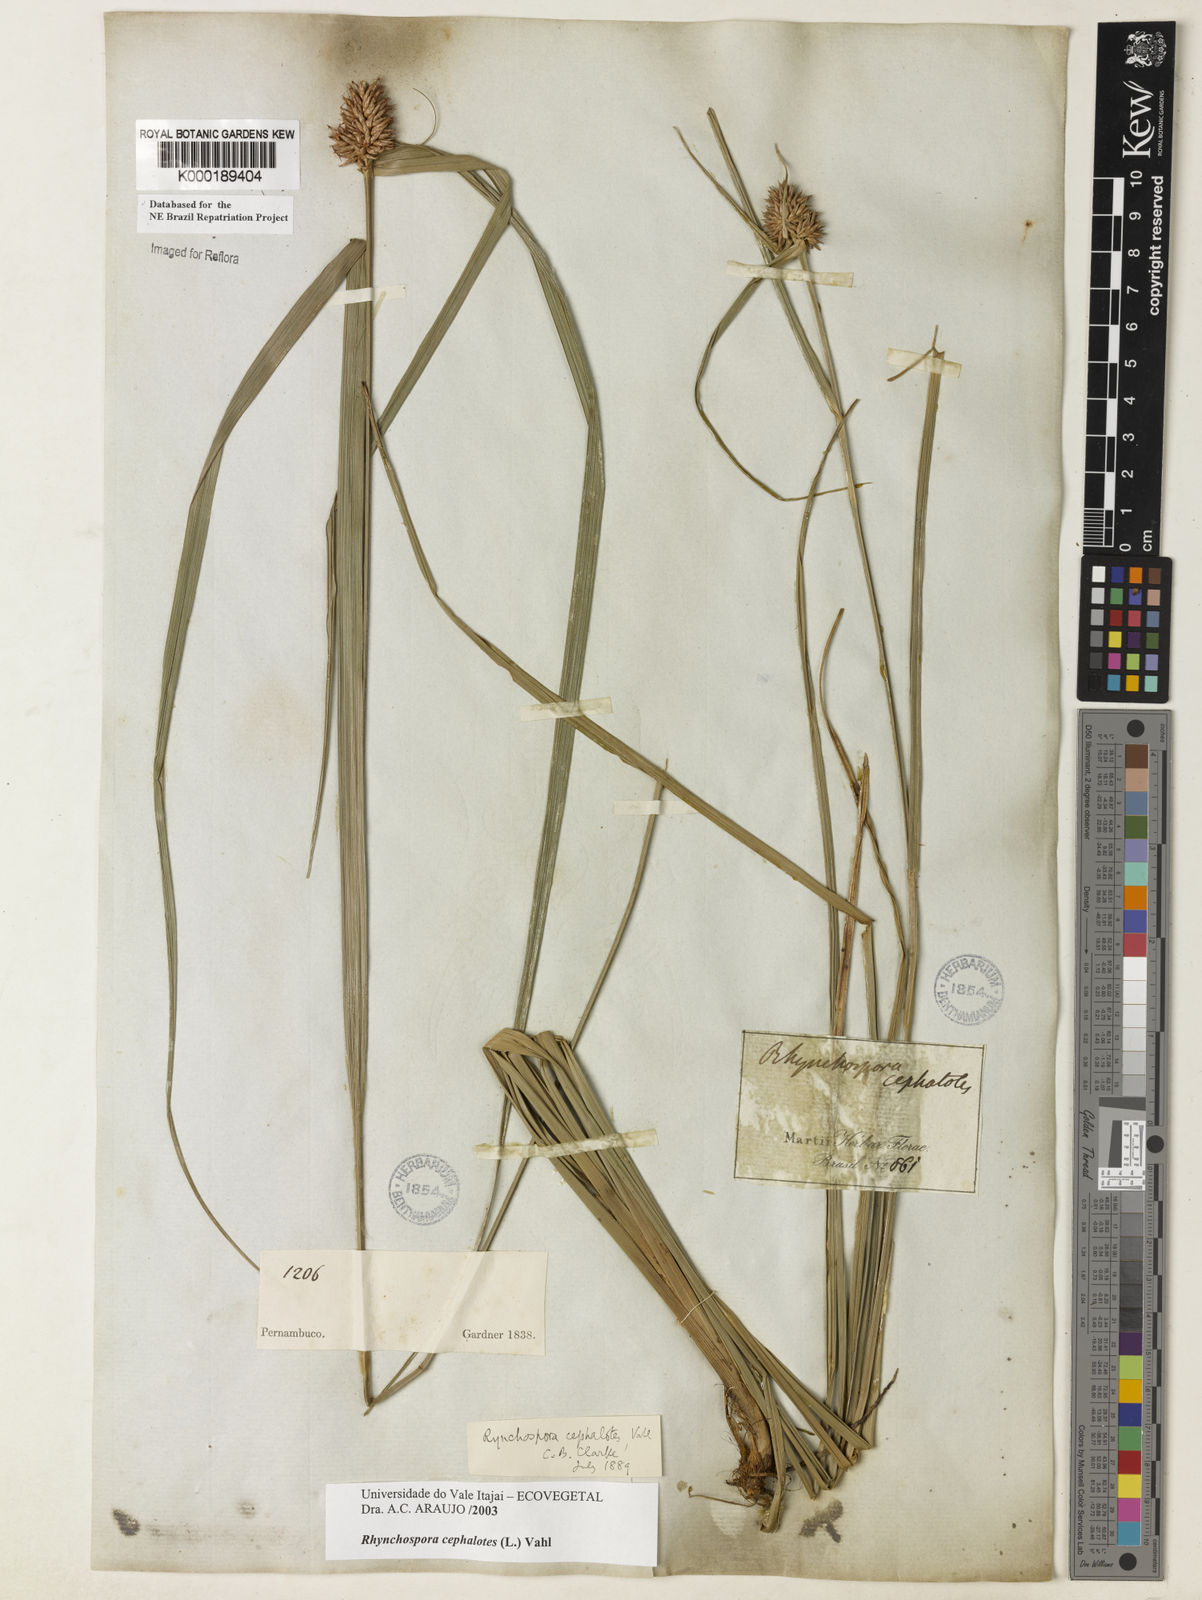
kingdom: Plantae
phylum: Tracheophyta
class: Liliopsida
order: Poales
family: Cyperaceae
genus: Rhynchospora
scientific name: Rhynchospora cephalotes
